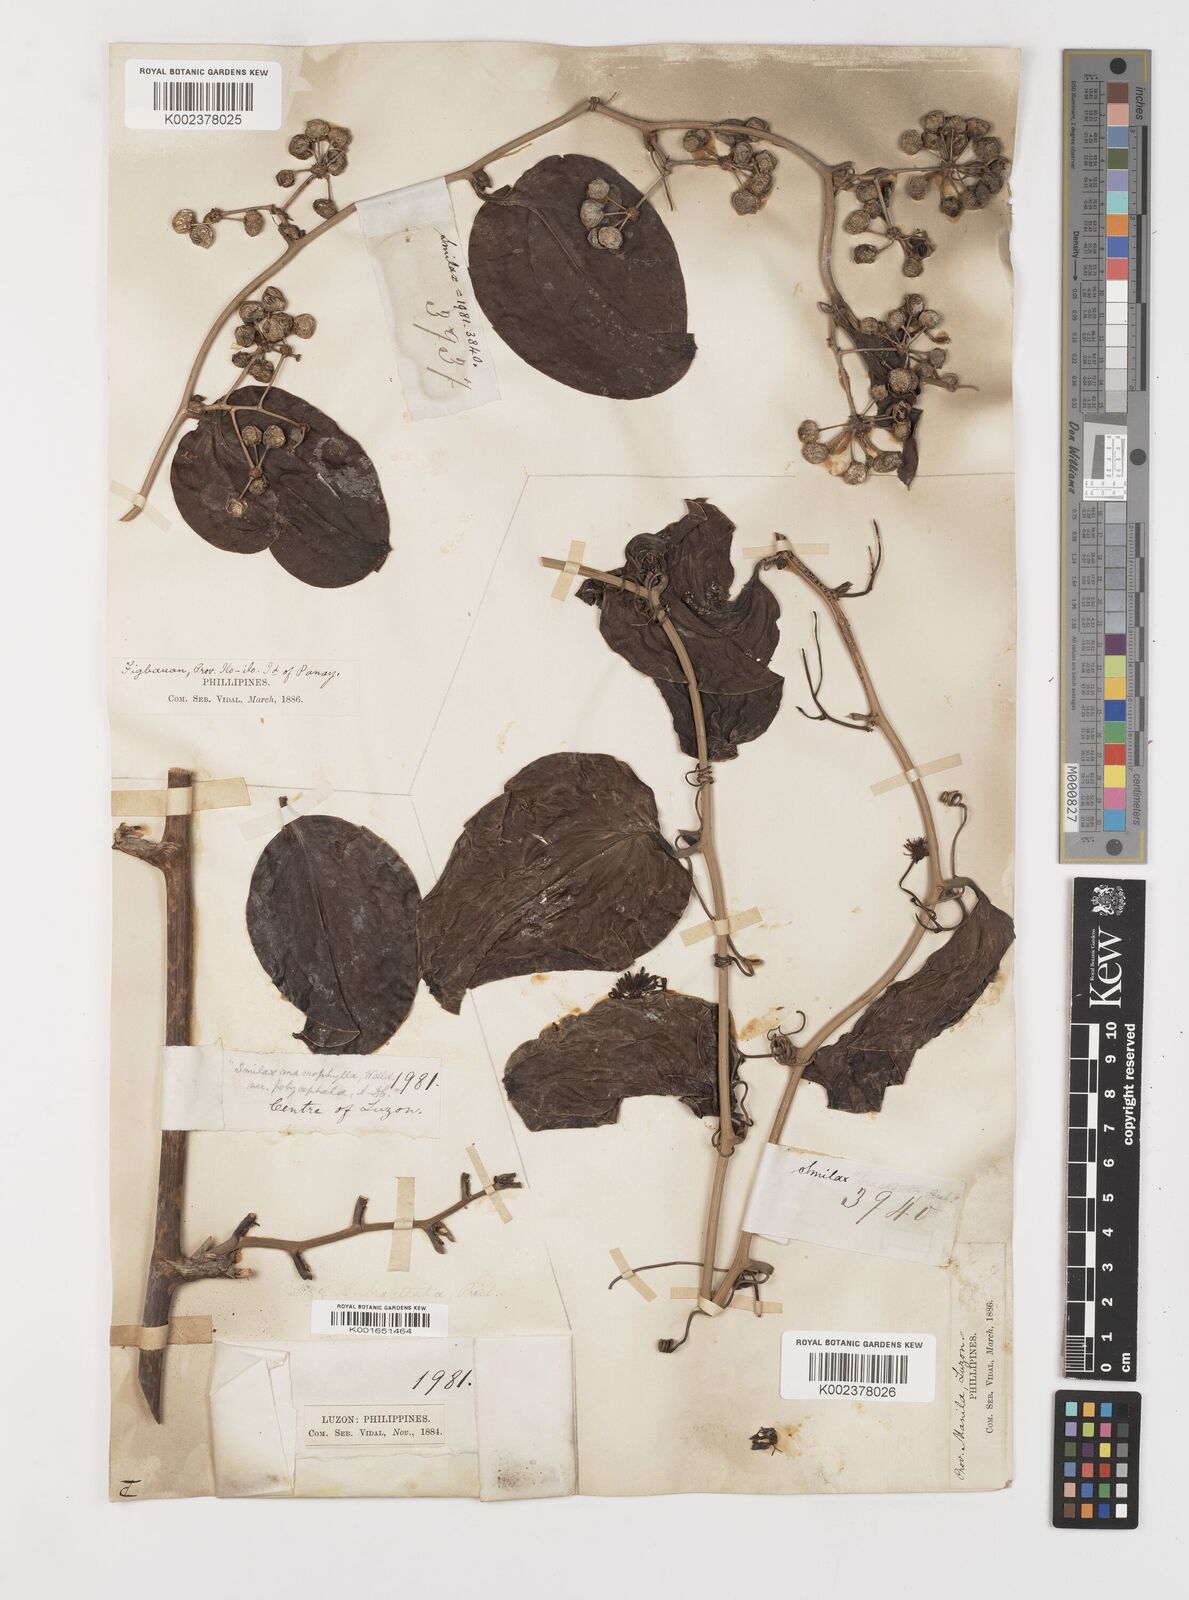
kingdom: Plantae
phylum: Tracheophyta
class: Liliopsida
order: Liliales
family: Smilacaceae
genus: Smilax
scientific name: Smilax bracteata
